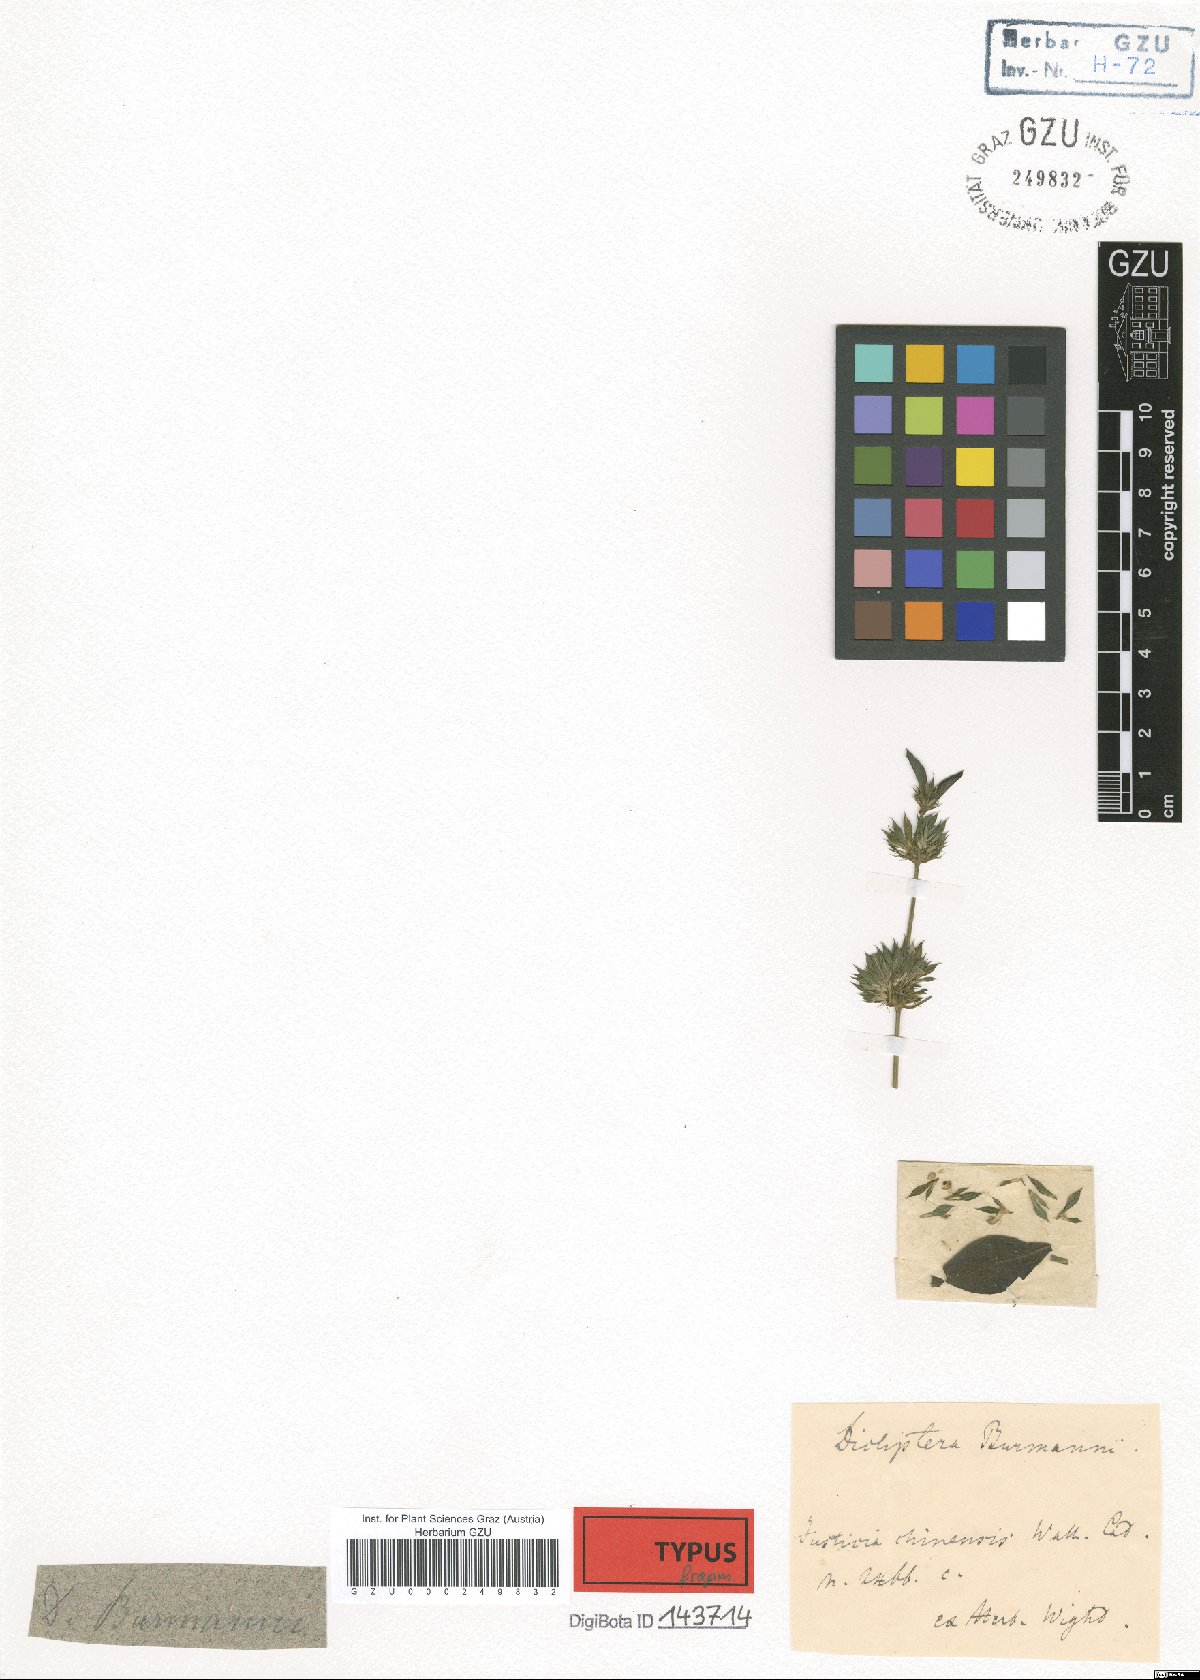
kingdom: Plantae
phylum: Tracheophyta
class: Magnoliopsida
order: Lamiales
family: Acanthaceae
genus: Dicliptera
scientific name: Dicliptera burmanni
